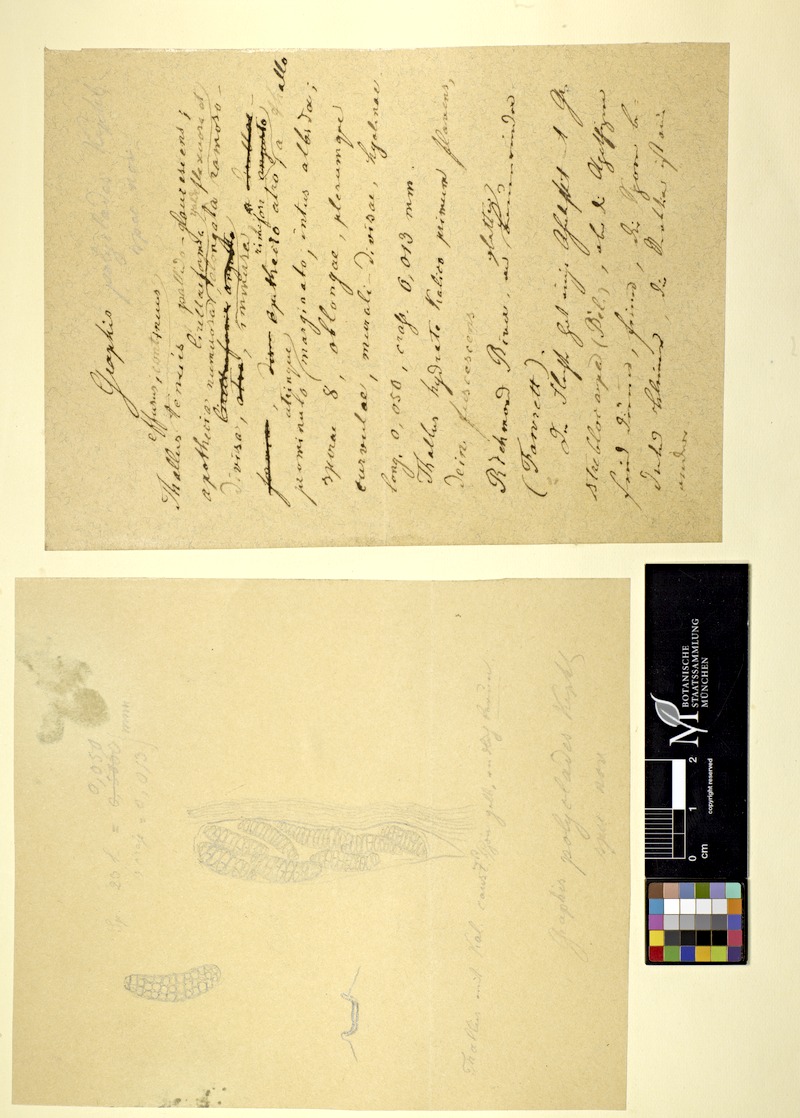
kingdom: Fungi
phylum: Ascomycota
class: Lecanoromycetes
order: Ostropales
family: Graphidaceae
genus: Graphina
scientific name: Graphina polyclades
